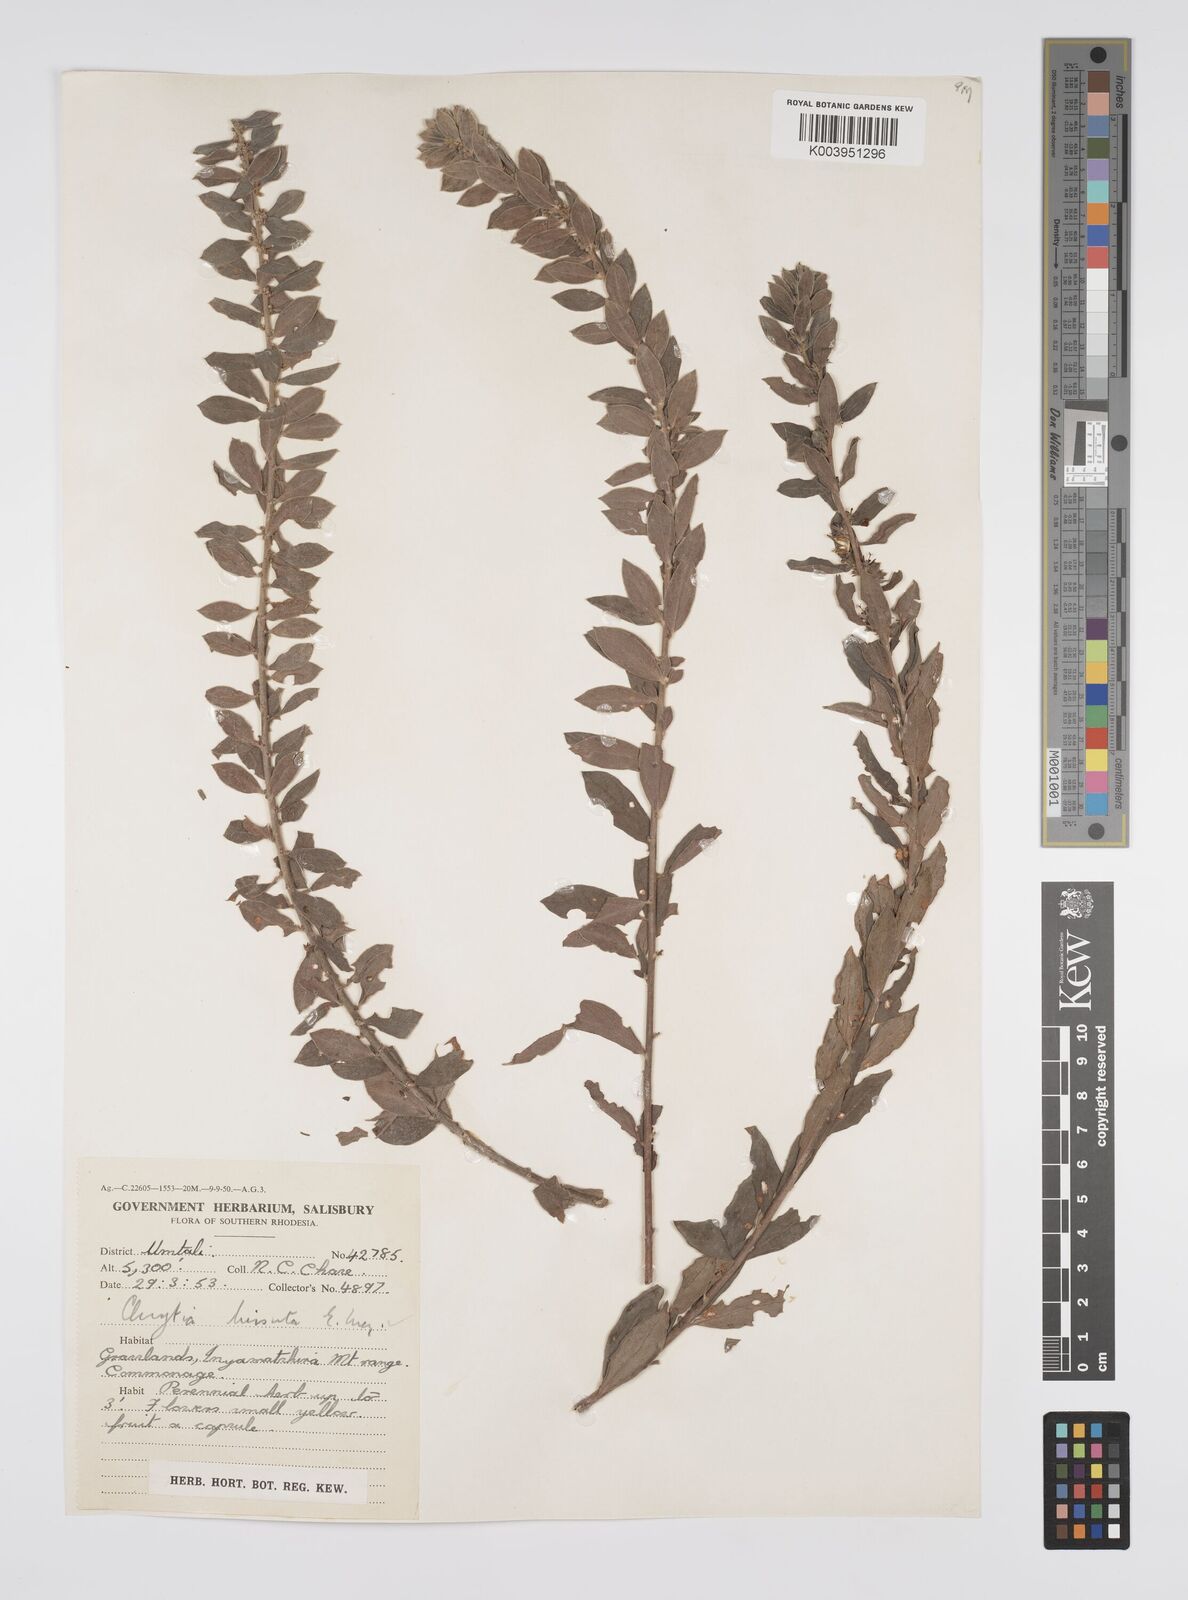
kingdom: Plantae
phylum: Tracheophyta
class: Magnoliopsida
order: Malpighiales
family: Peraceae
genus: Clutia
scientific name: Clutia hirsuta
